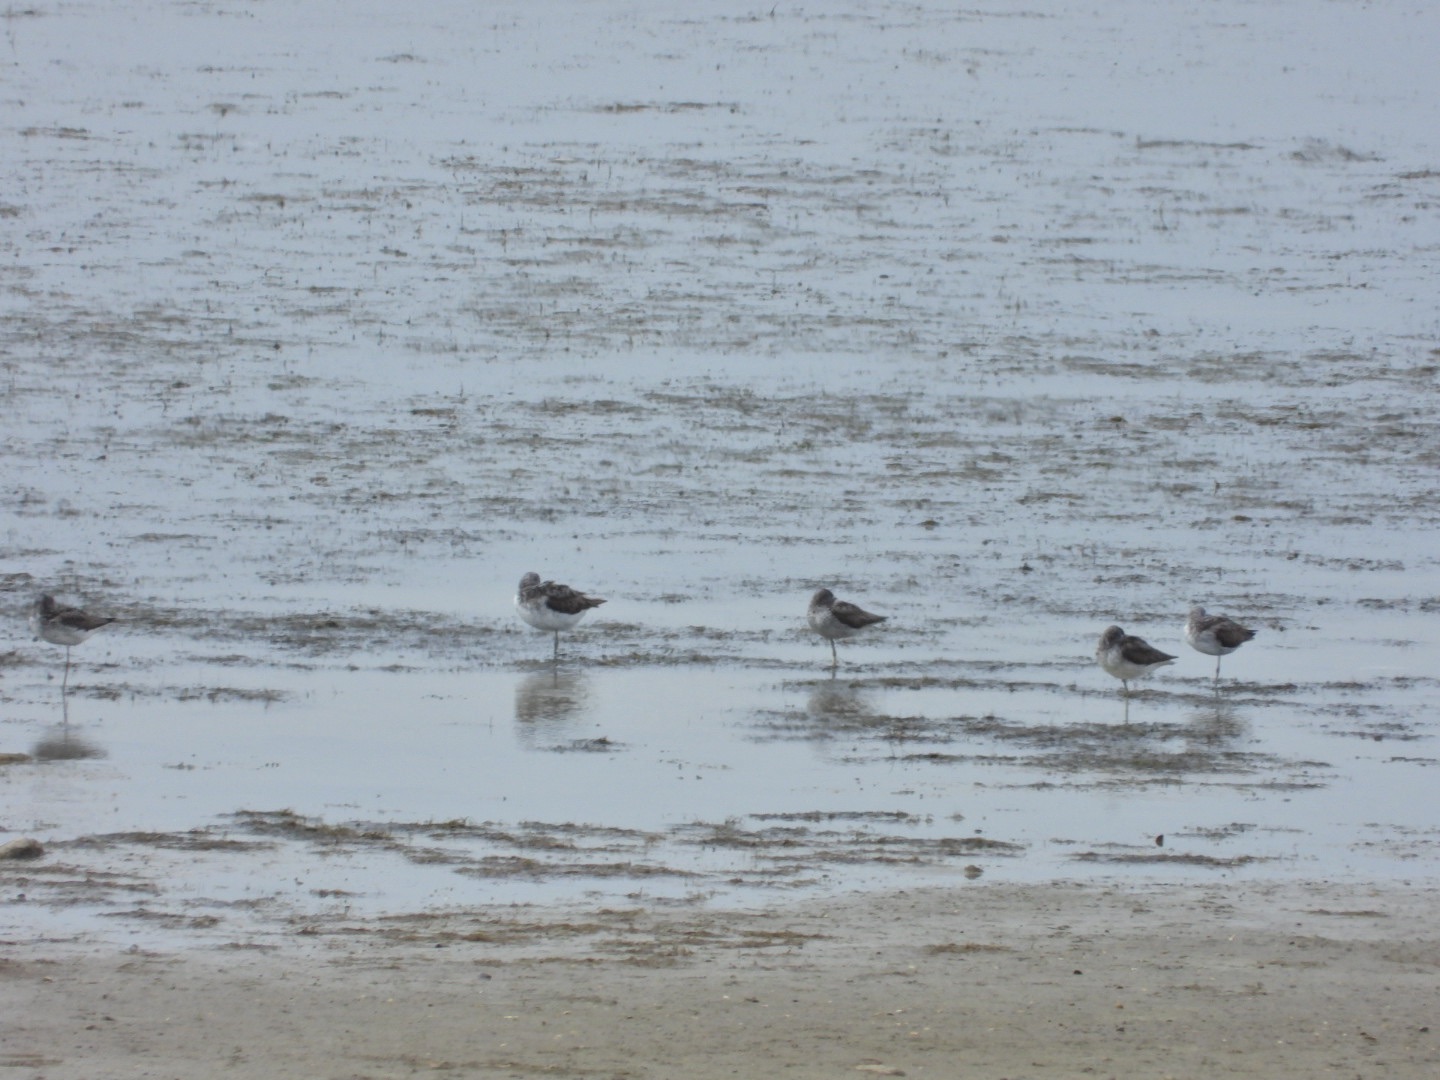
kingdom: Animalia
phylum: Chordata
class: Aves
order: Charadriiformes
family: Scolopacidae
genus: Tringa
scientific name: Tringa nebularia
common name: Hvidklire
